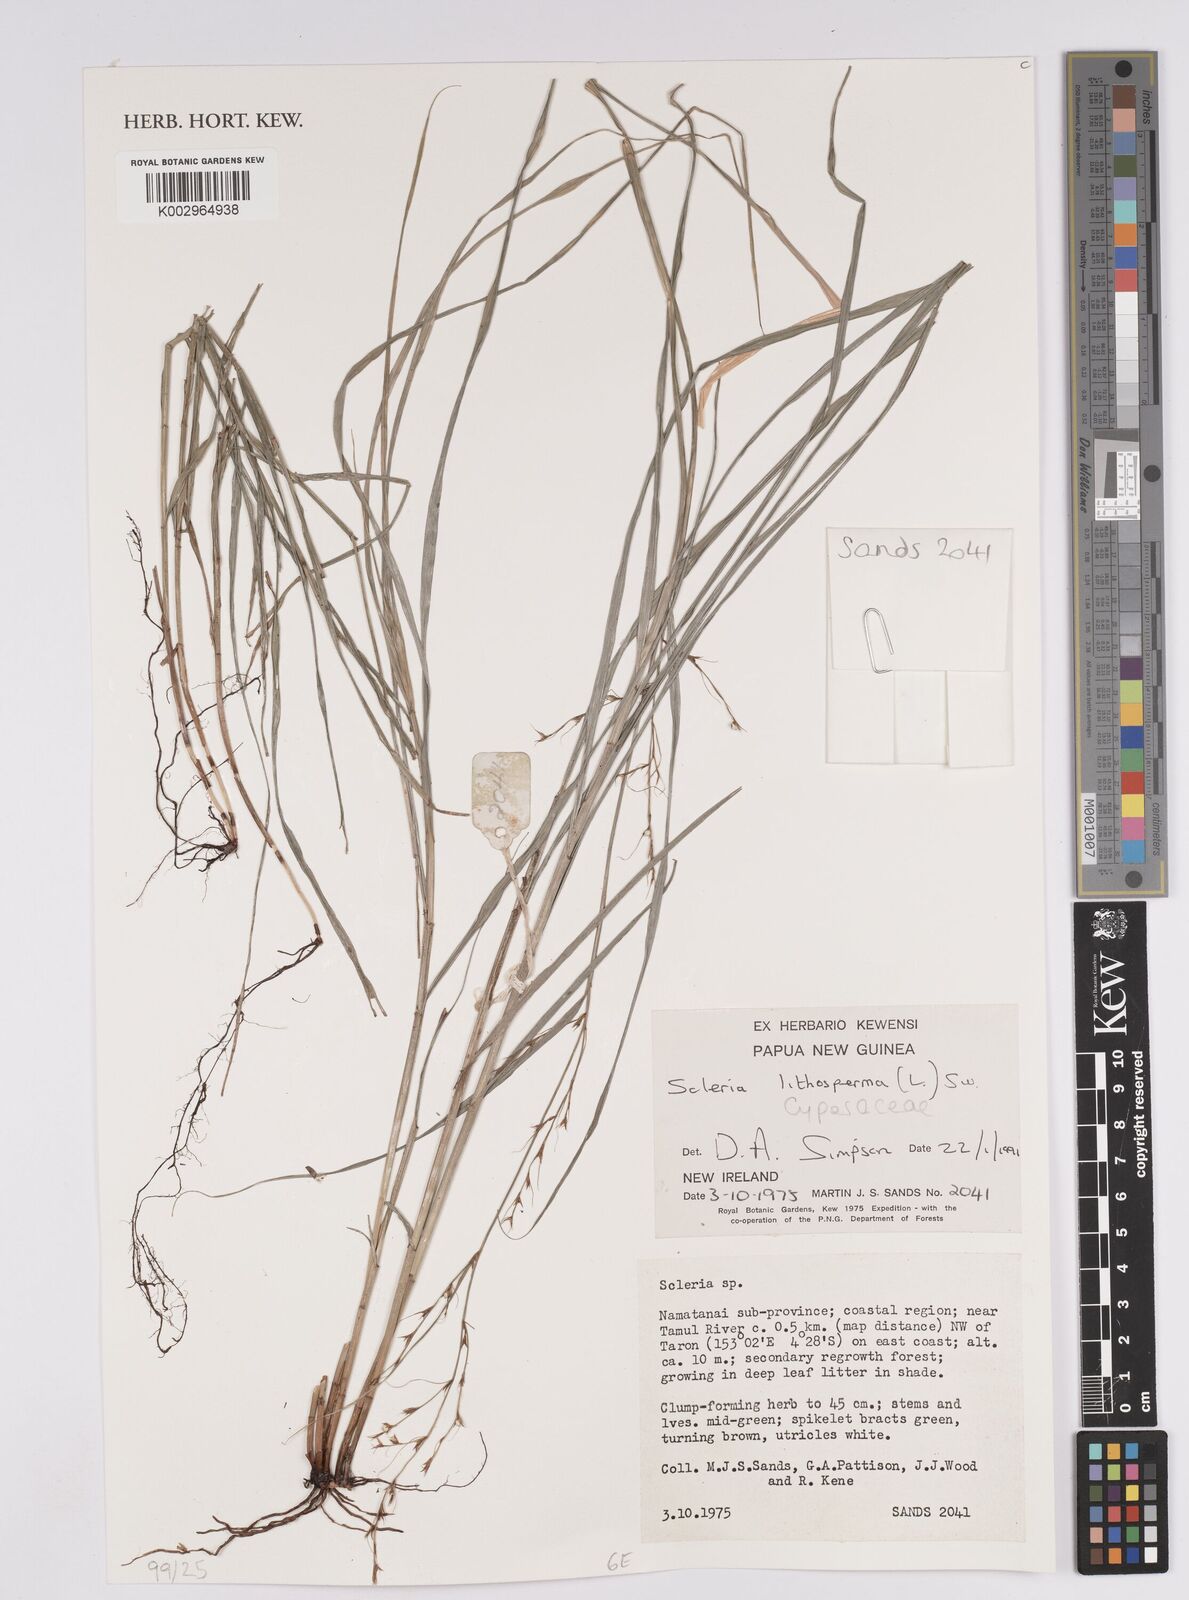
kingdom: Plantae
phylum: Tracheophyta
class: Liliopsida
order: Poales
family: Cyperaceae
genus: Scleria
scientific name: Scleria lithosperma
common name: Florida keys nut-rush
